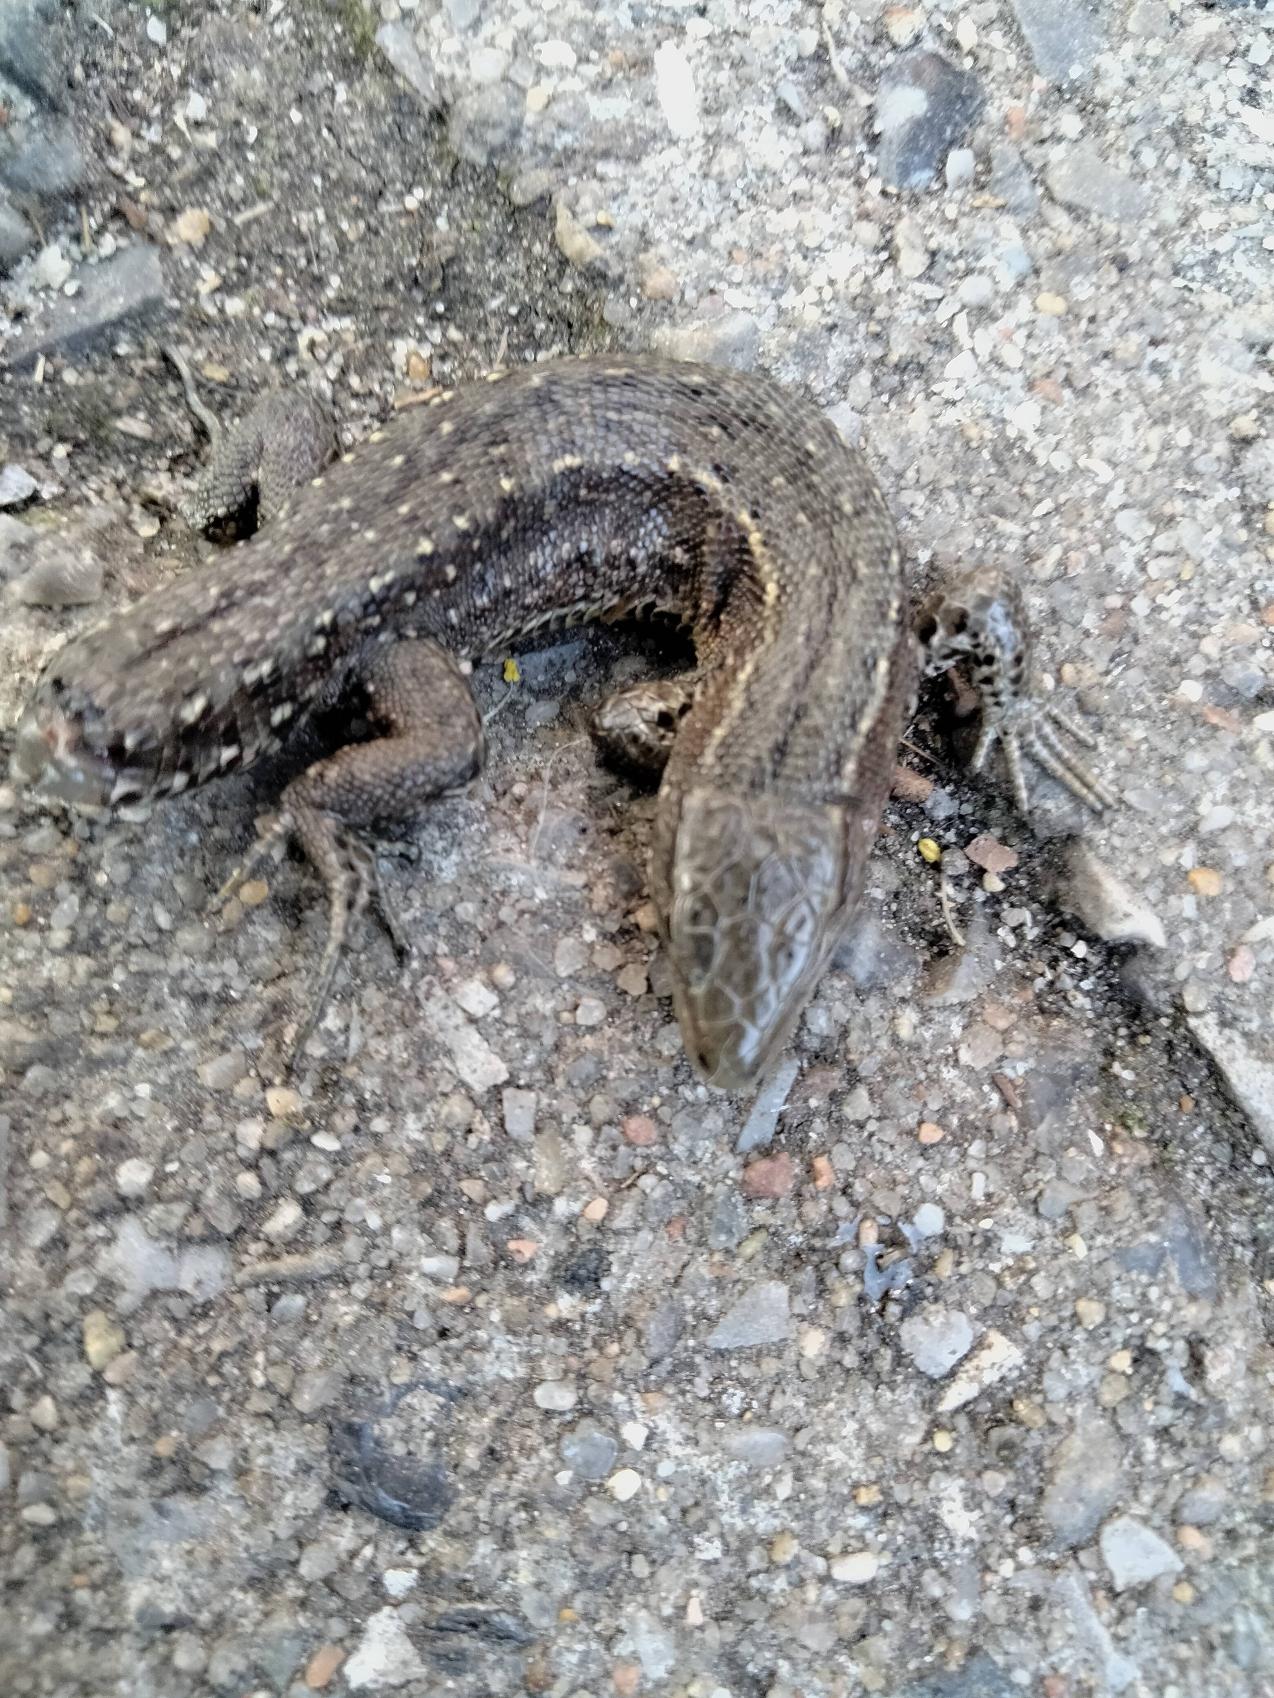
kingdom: Animalia
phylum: Chordata
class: Squamata
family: Lacertidae
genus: Zootoca
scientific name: Zootoca vivipara
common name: Skovfirben
